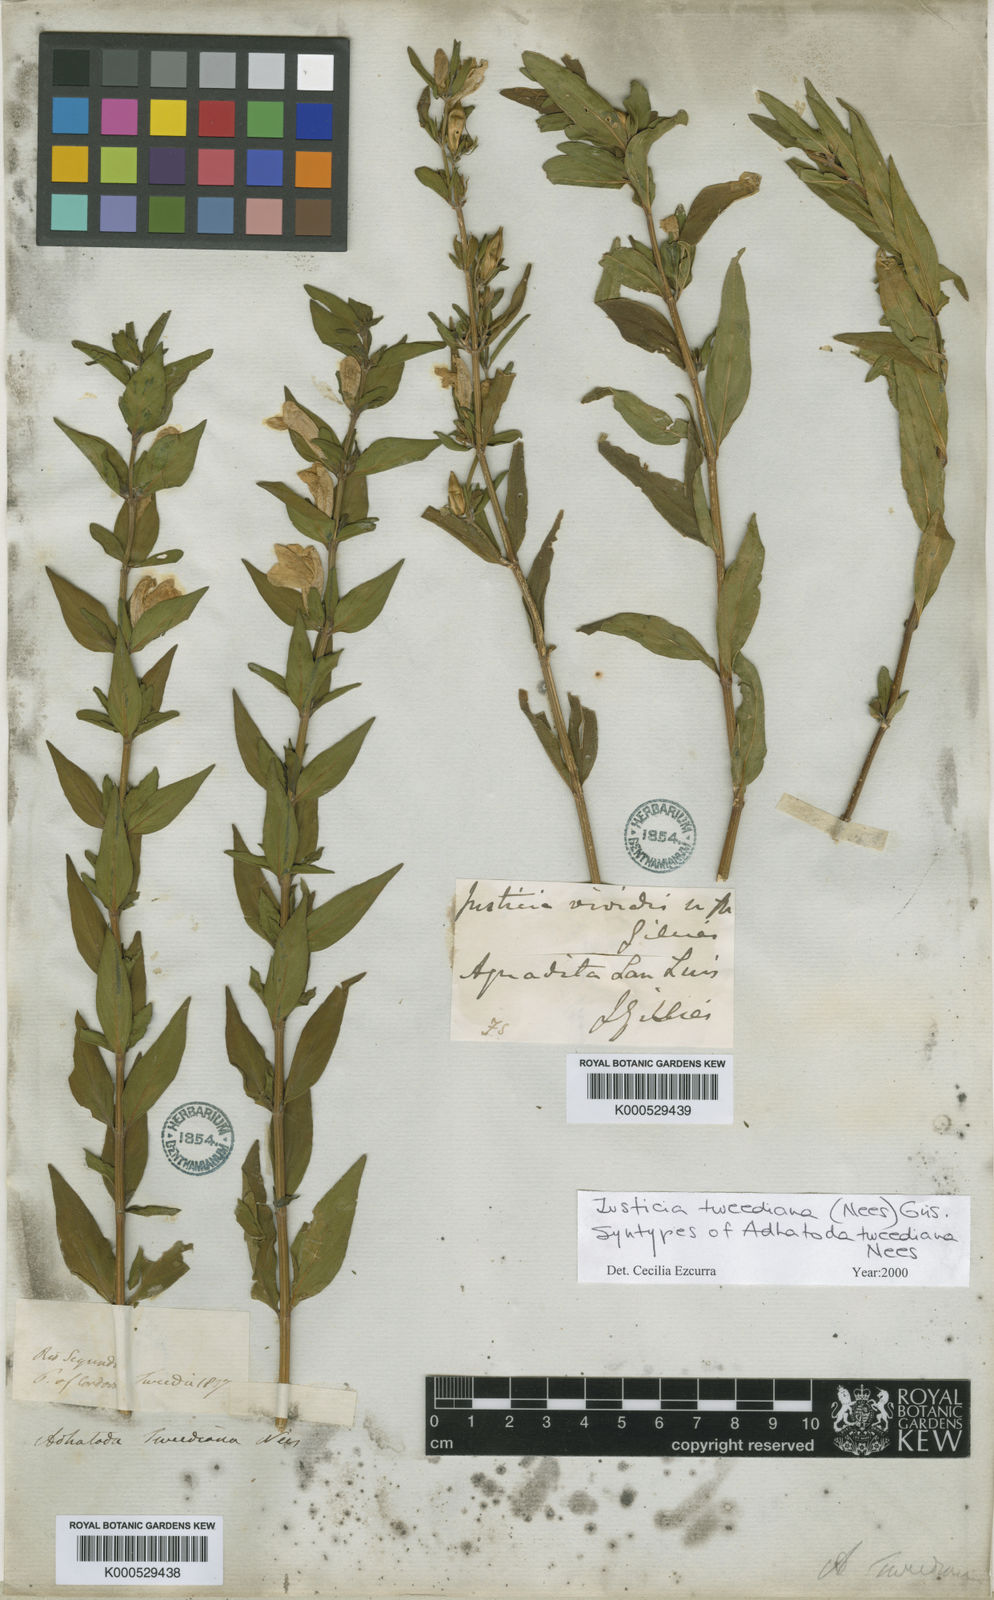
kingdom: Plantae
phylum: Tracheophyta
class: Magnoliopsida
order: Lamiales
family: Acanthaceae
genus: Justicia
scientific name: Justicia
